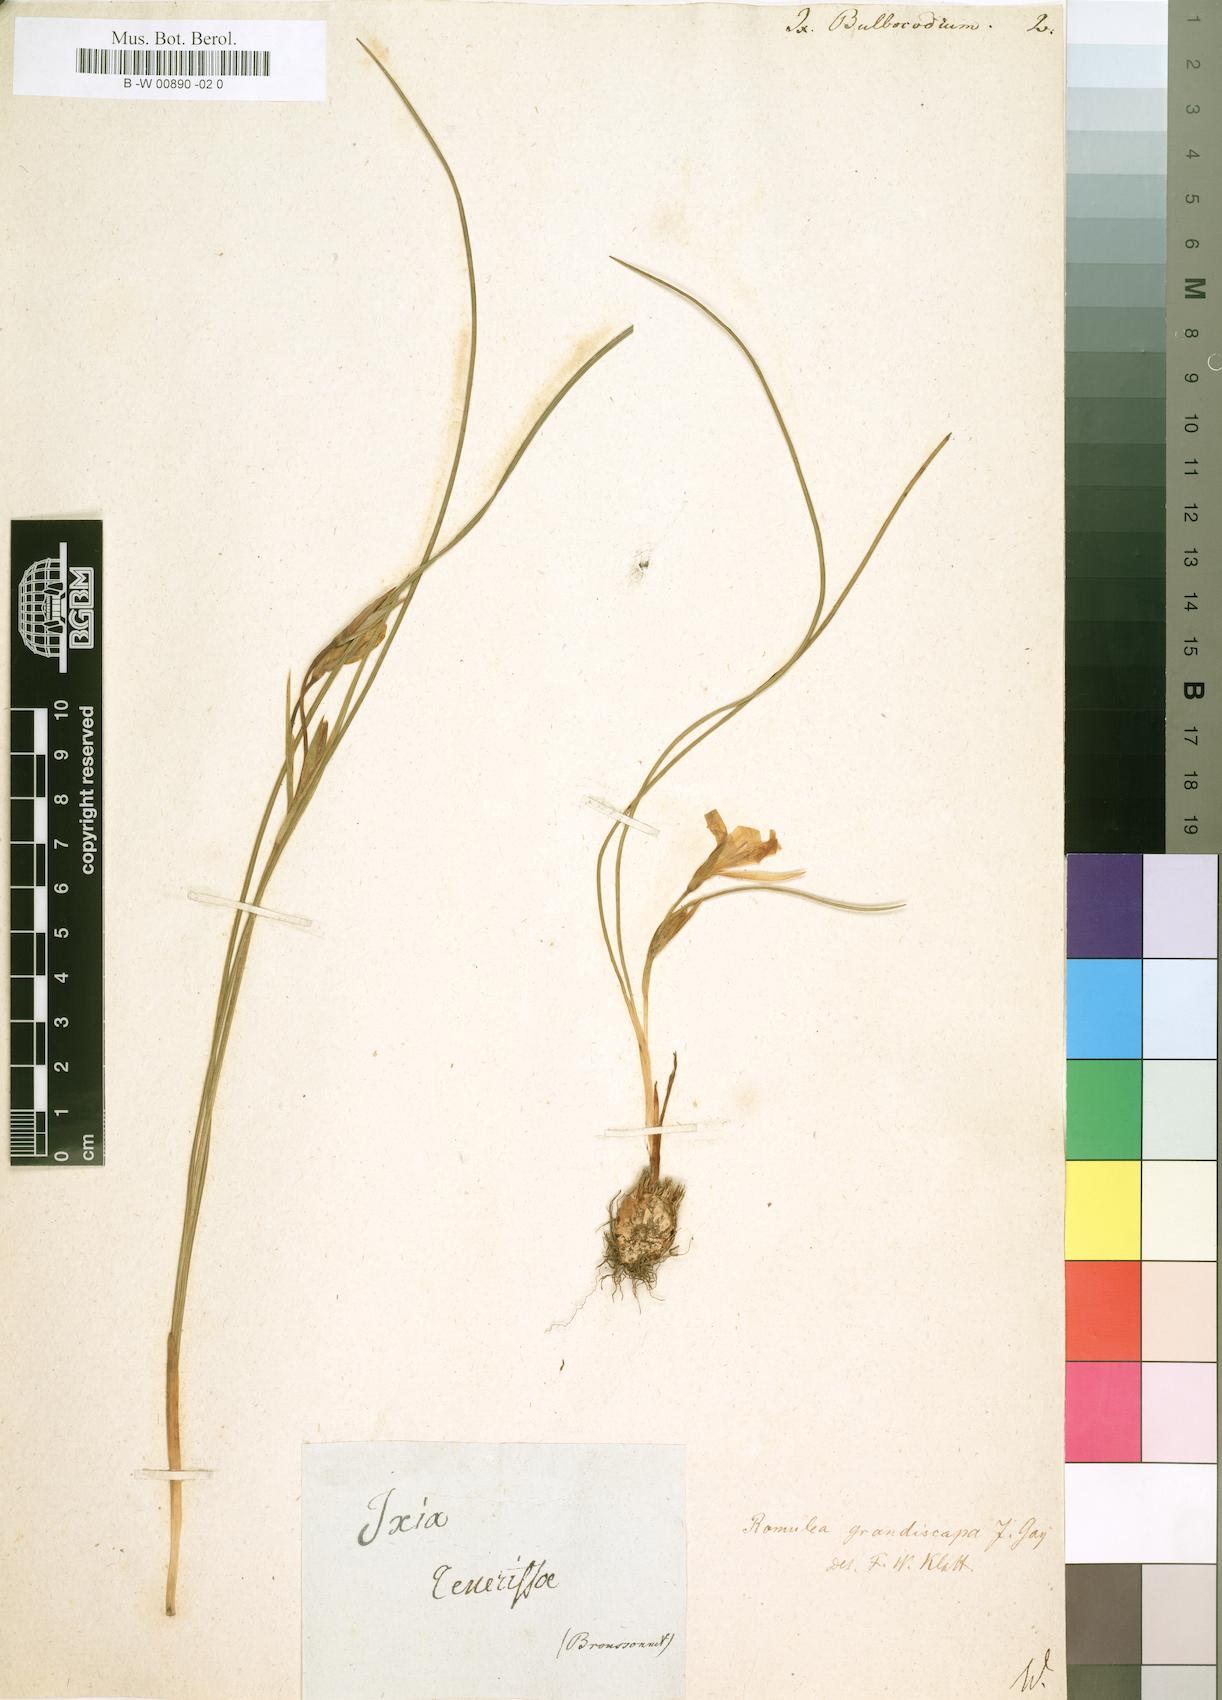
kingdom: Plantae
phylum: Tracheophyta
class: Liliopsida
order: Asparagales
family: Iridaceae
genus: Ixia
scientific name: Ixia bulbocodium
